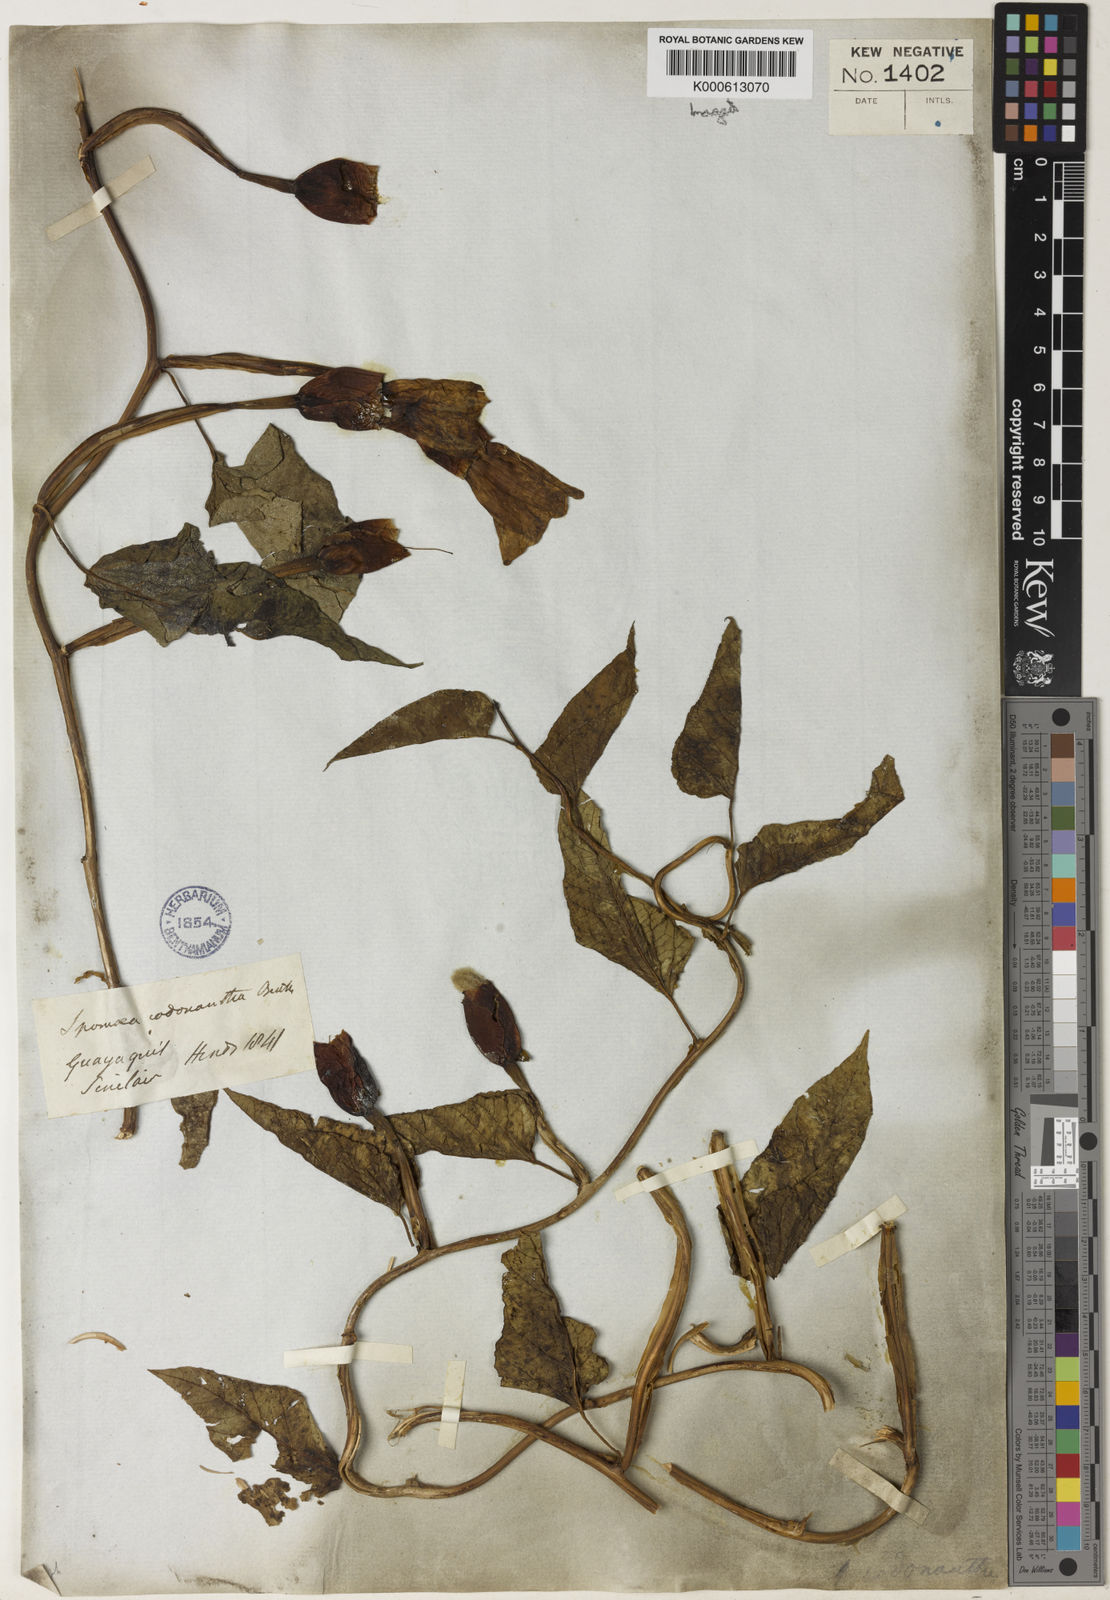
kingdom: Plantae
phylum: Tracheophyta
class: Magnoliopsida
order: Solanales
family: Convolvulaceae
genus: Operculina
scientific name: Operculina codonantha
